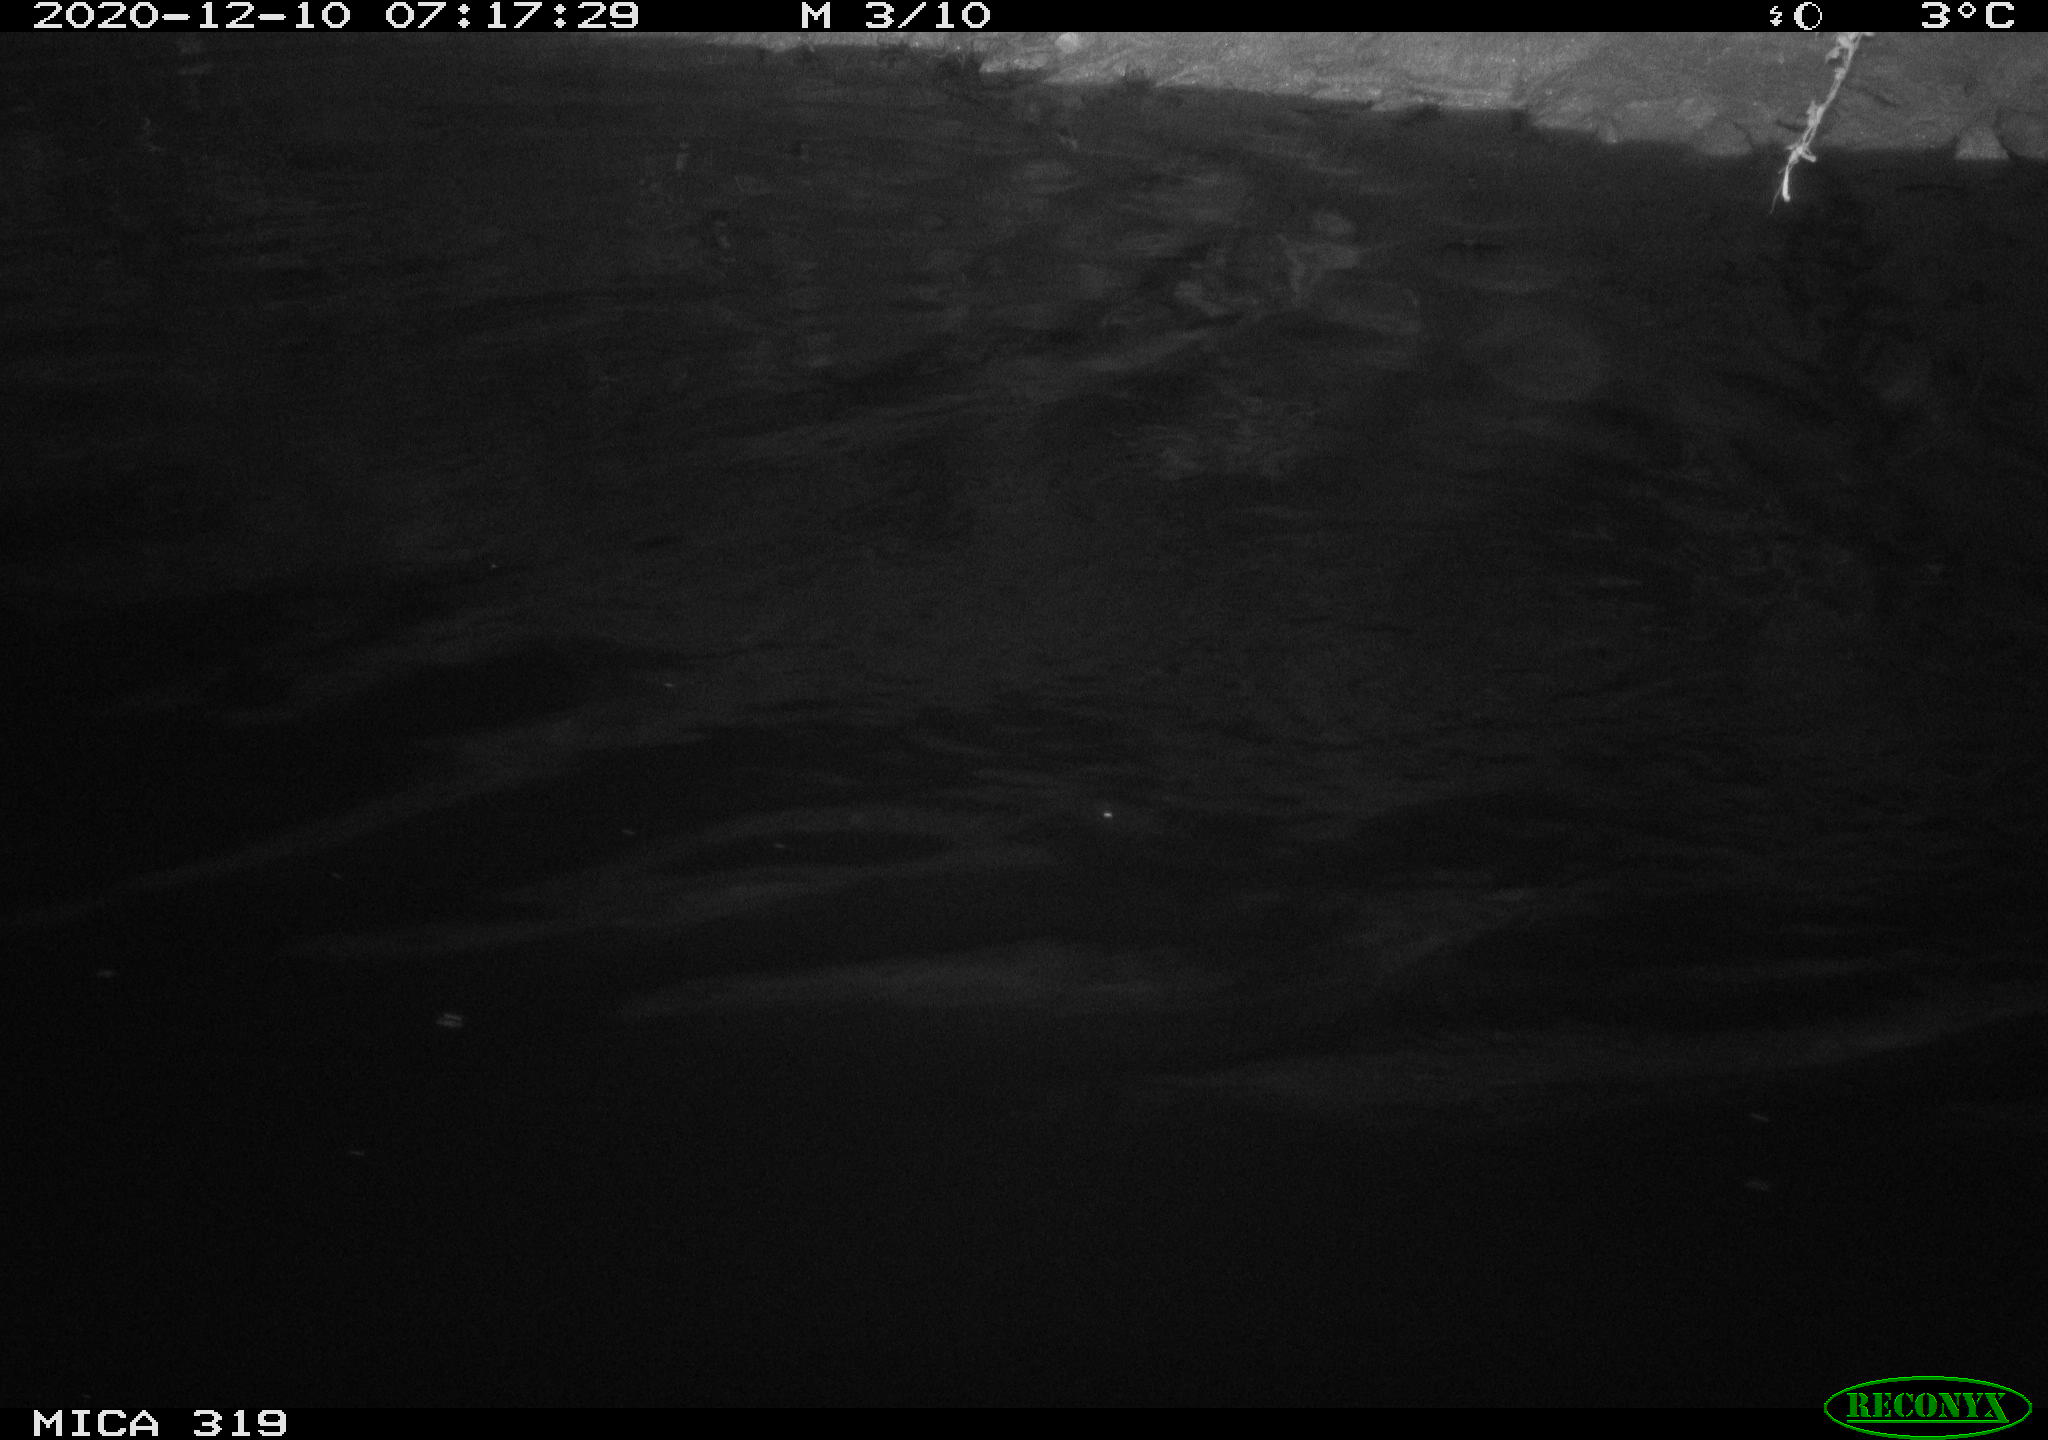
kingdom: Animalia
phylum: Chordata
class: Aves
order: Anseriformes
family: Anatidae
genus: Anas
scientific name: Anas platyrhynchos
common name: Mallard
